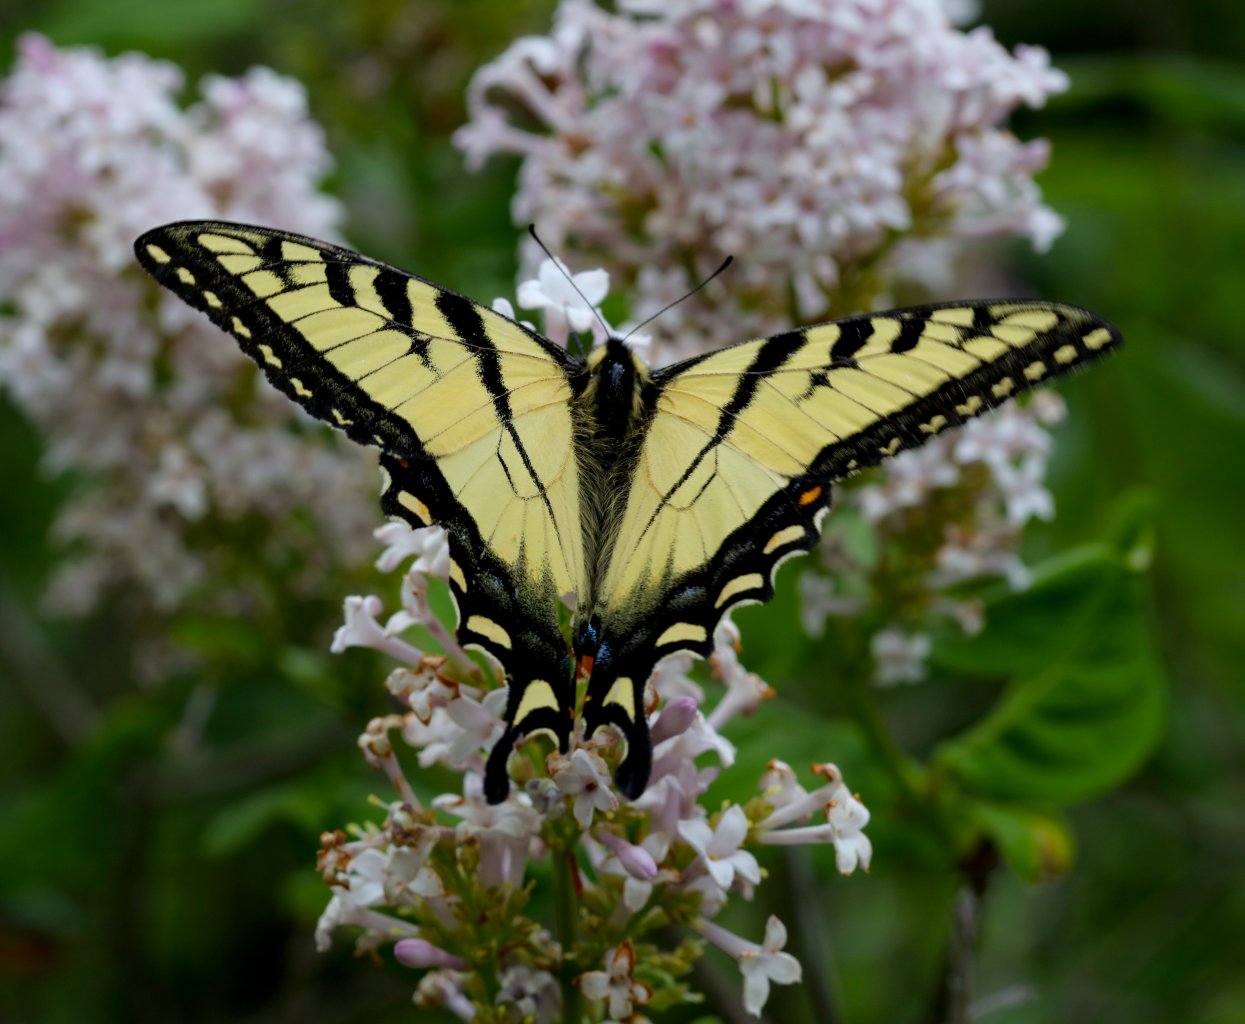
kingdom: Animalia
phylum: Arthropoda
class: Insecta
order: Lepidoptera
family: Papilionidae
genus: Pterourus
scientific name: Pterourus canadensis
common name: Canadian Tiger Swallowtail
